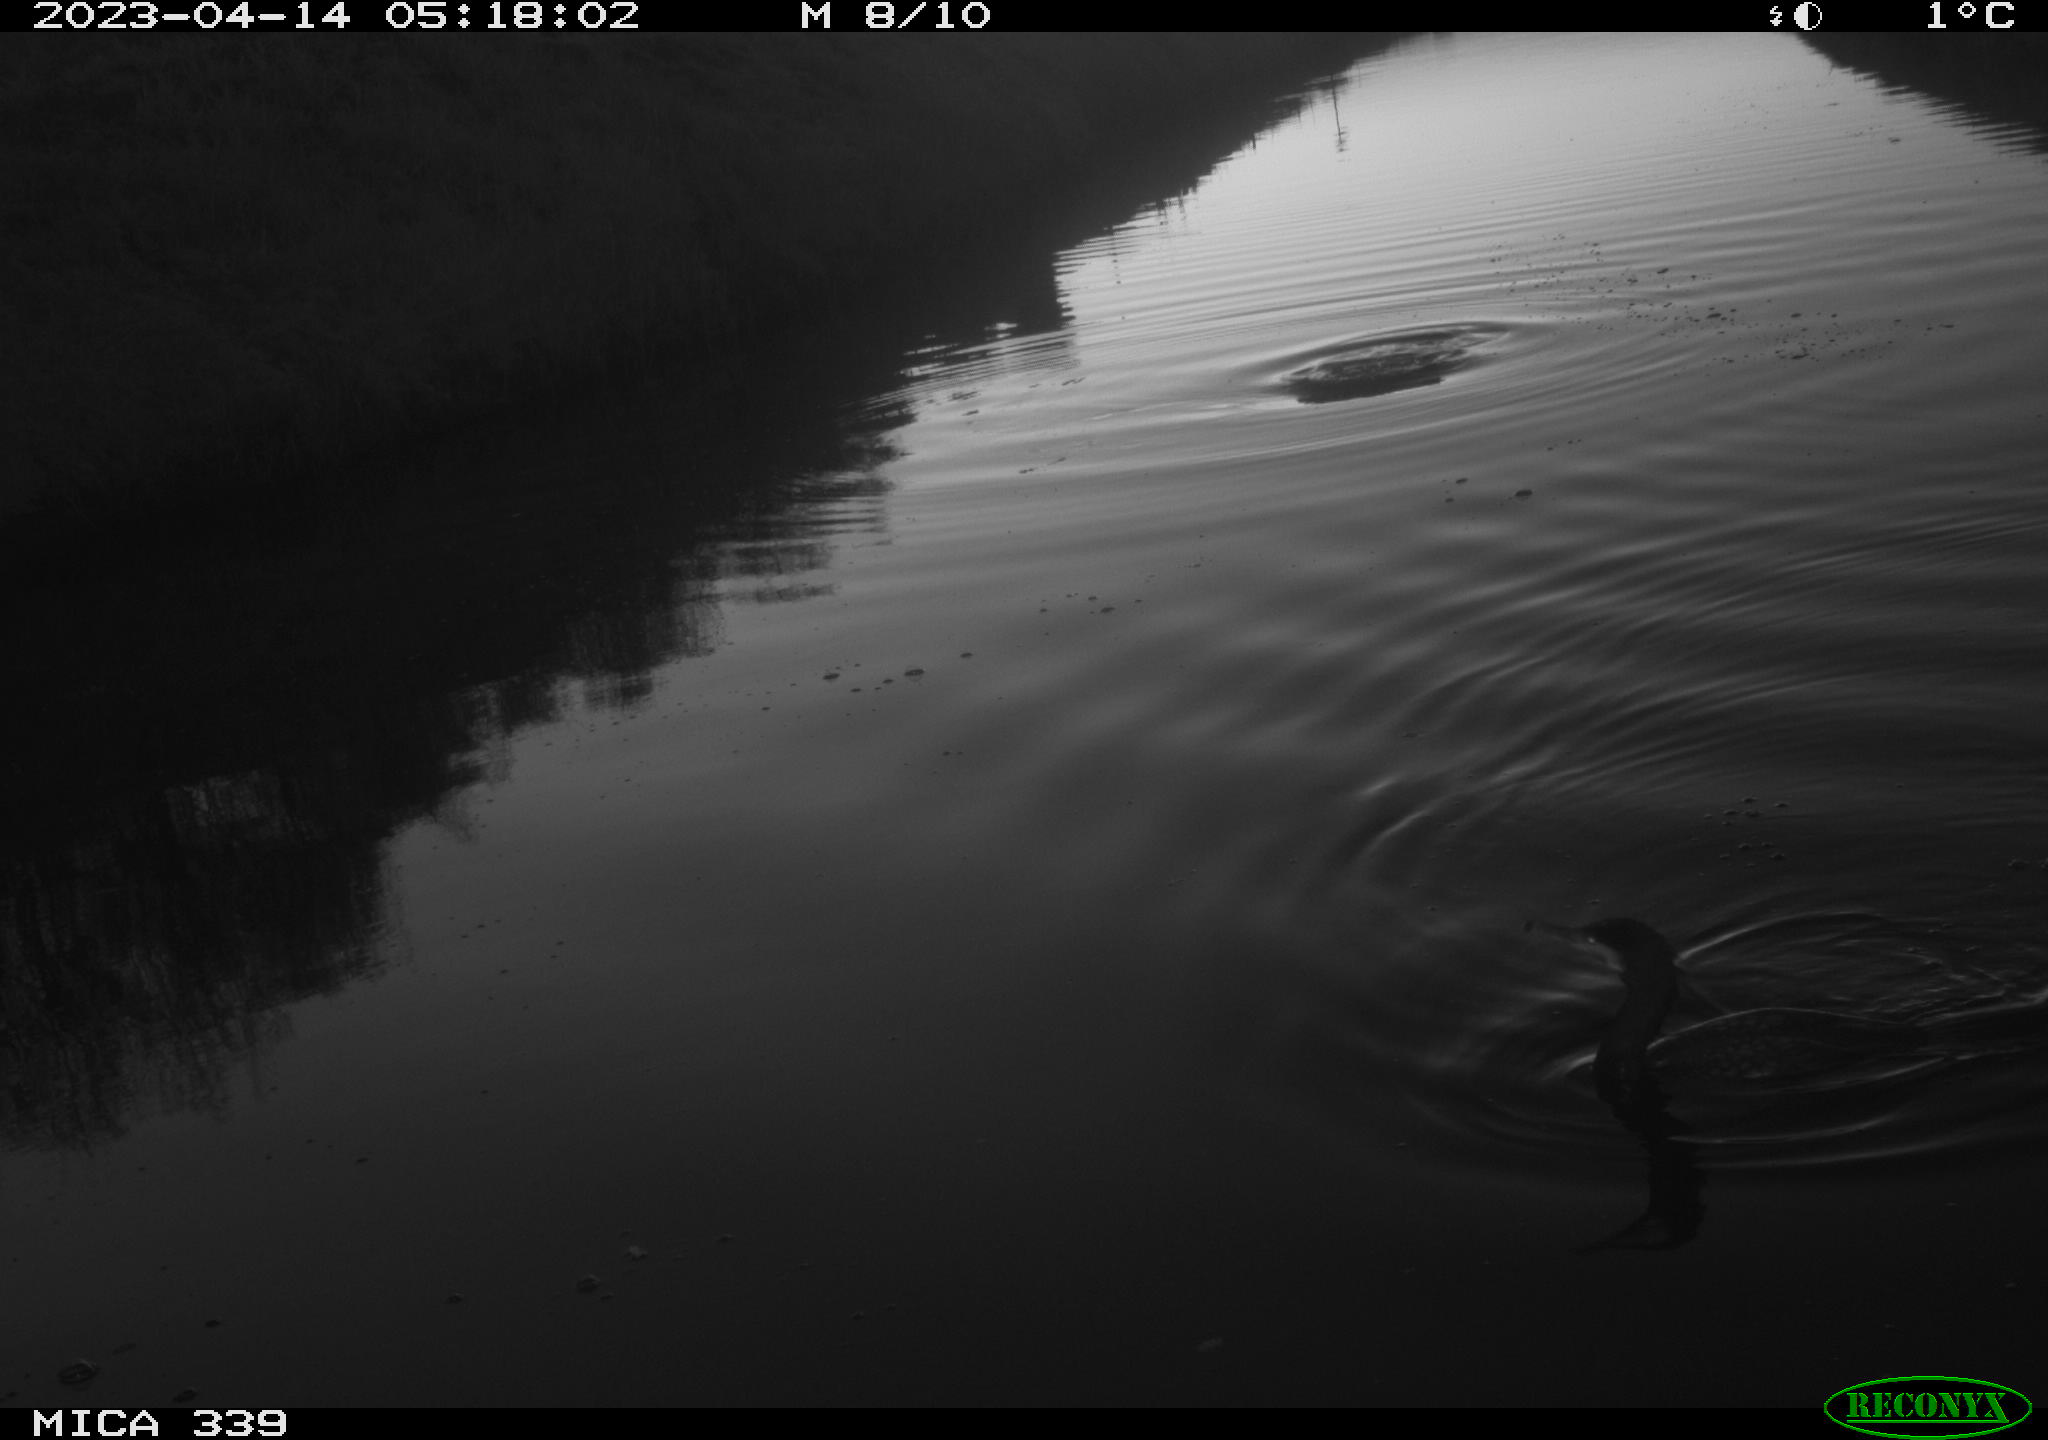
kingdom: Animalia
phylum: Chordata
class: Aves
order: Anseriformes
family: Anatidae
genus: Anas
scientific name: Anas
